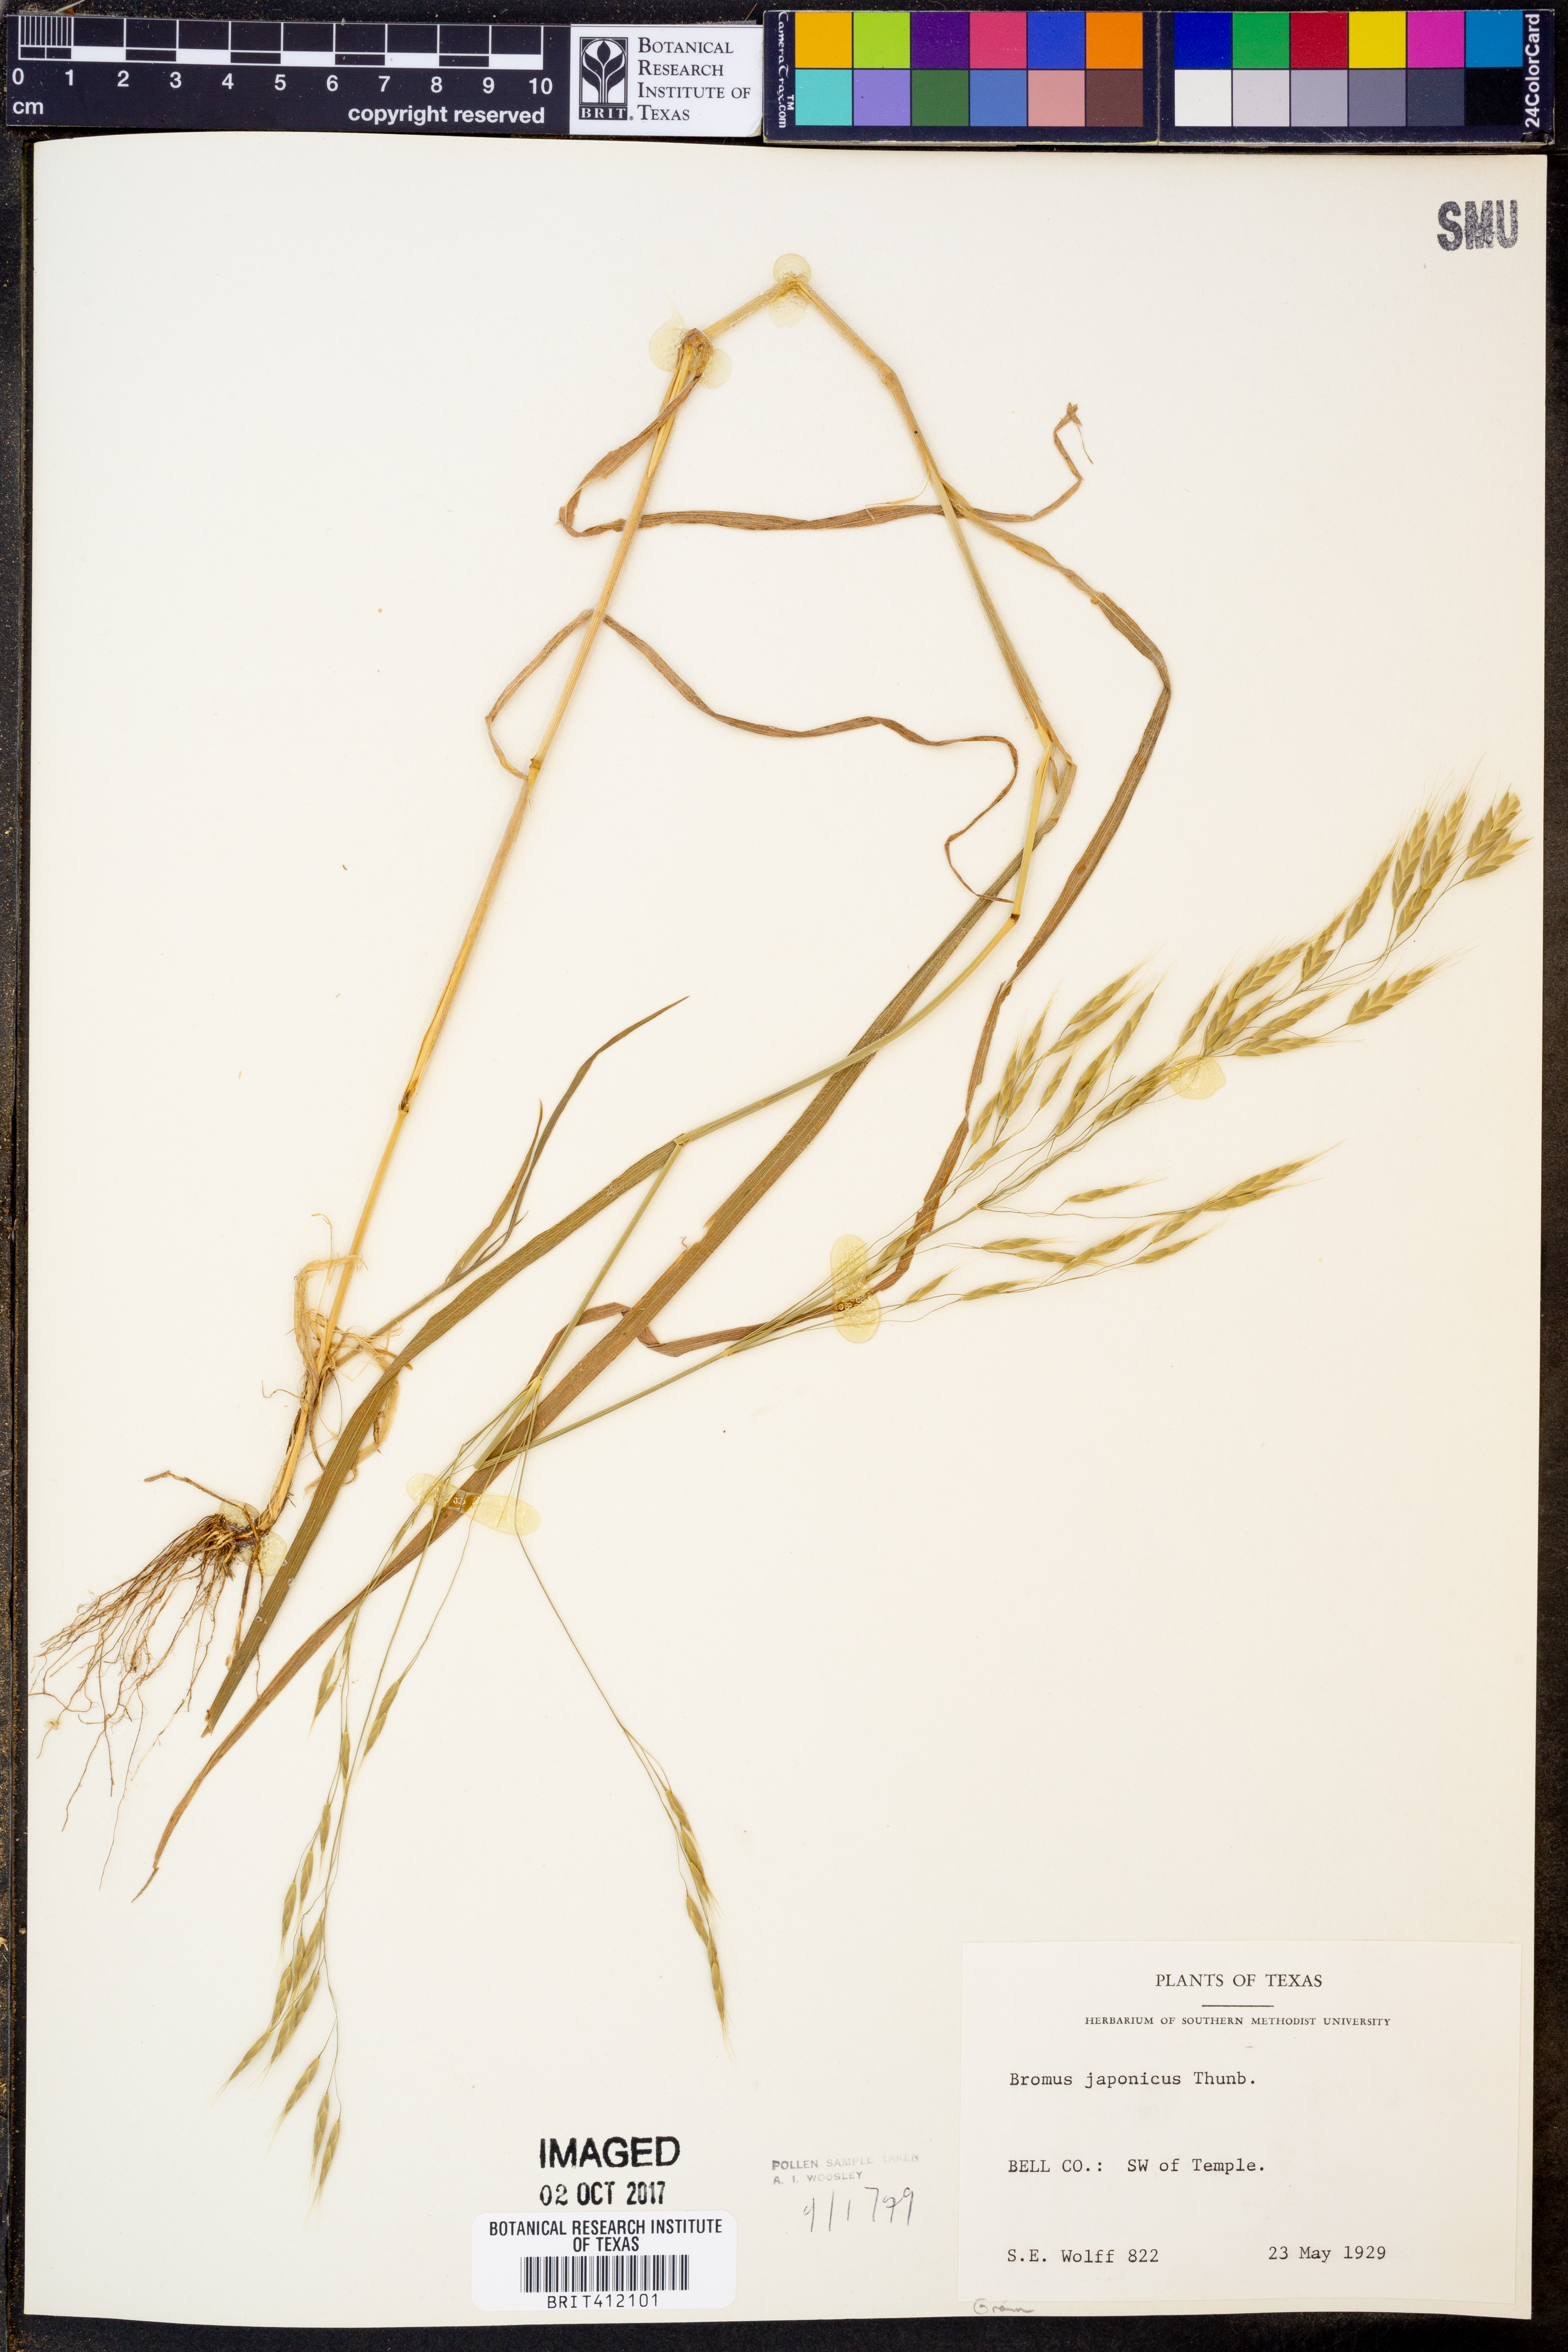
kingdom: Plantae
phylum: Tracheophyta
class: Liliopsida
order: Poales
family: Poaceae
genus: Bromus
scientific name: Bromus japonicus
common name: Japanese brome
